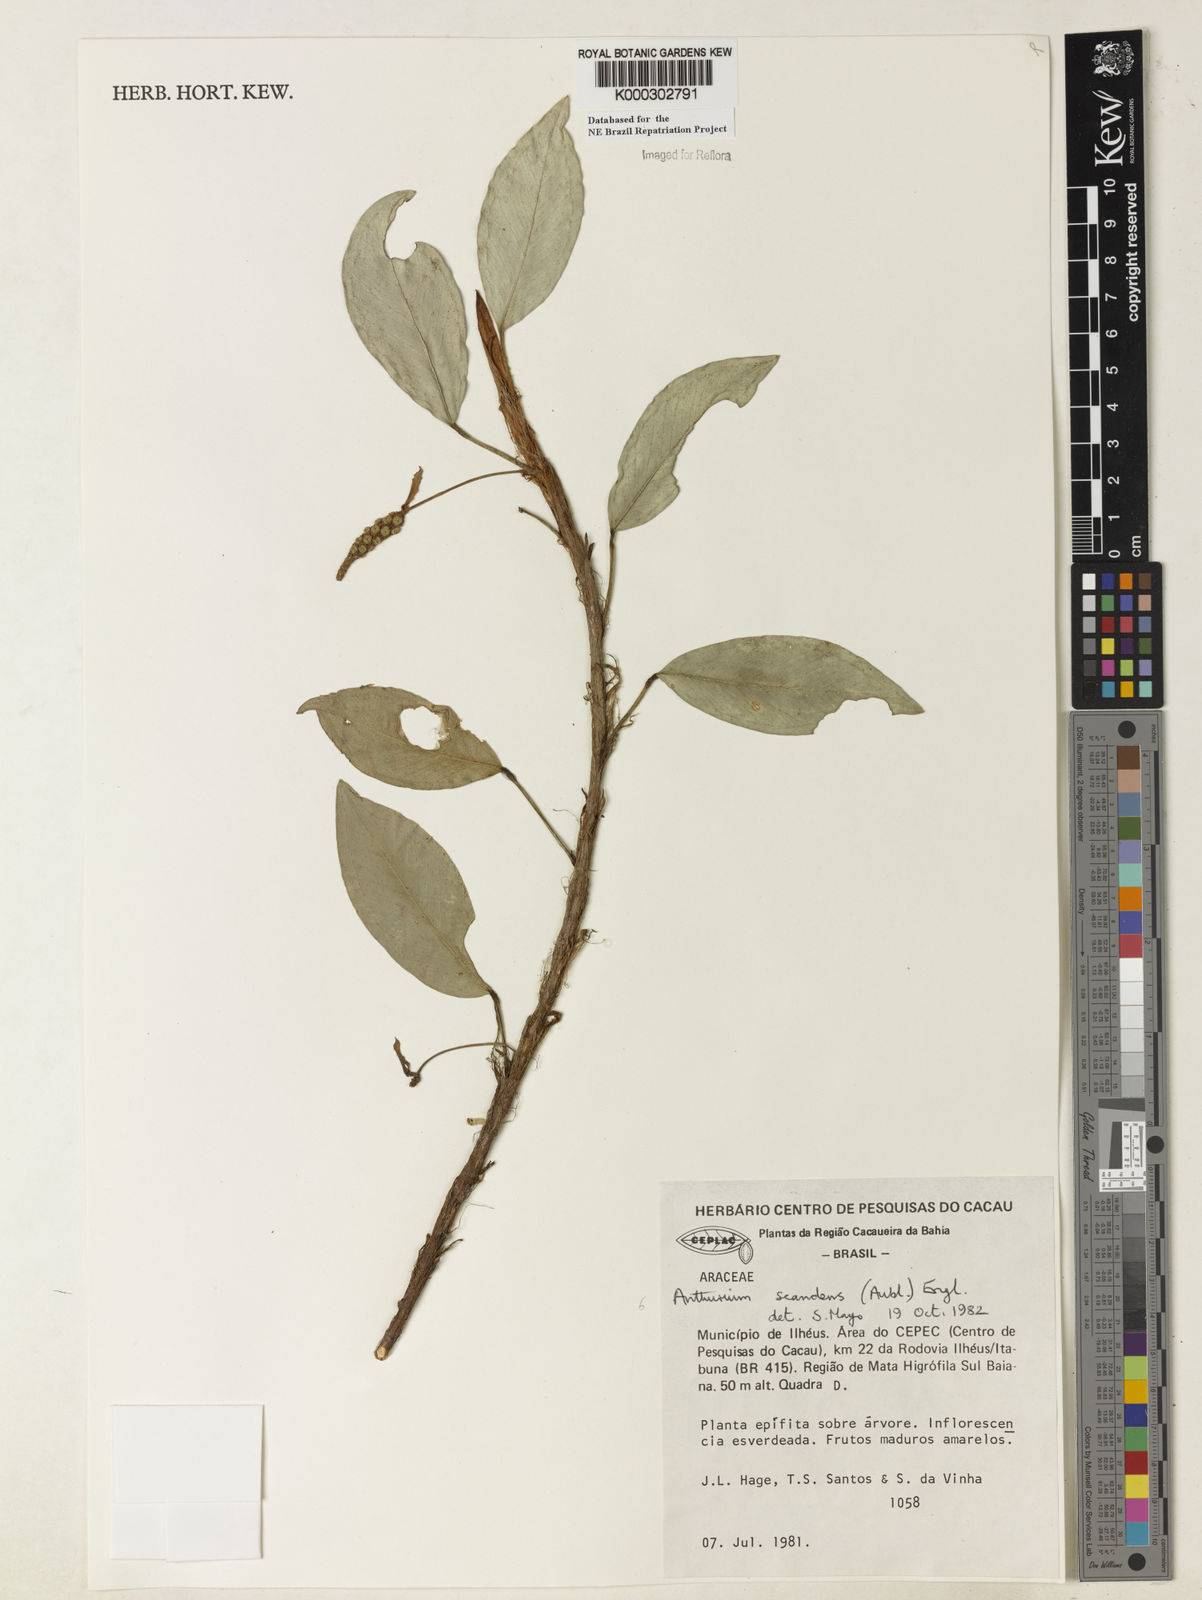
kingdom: Plantae
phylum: Tracheophyta
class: Liliopsida
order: Alismatales
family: Araceae
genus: Anthurium
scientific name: Anthurium scandens
